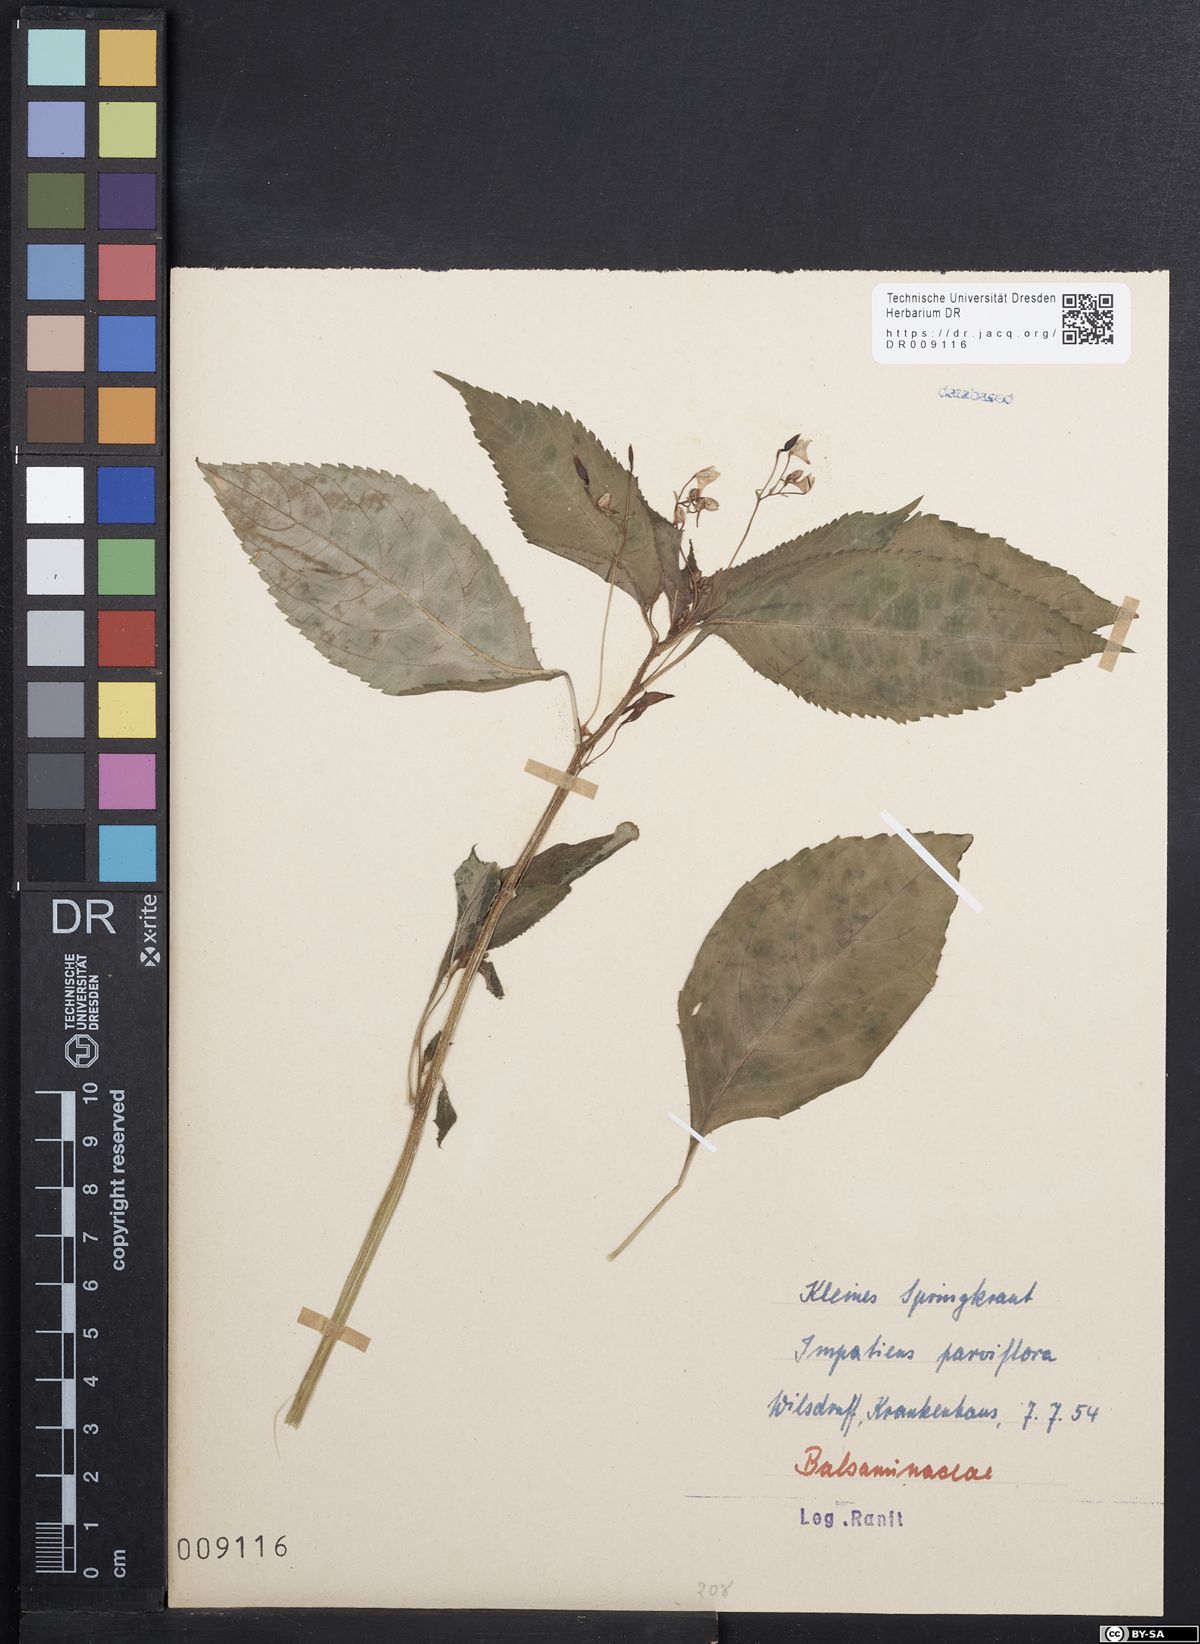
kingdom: Plantae
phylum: Tracheophyta
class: Magnoliopsida
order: Ericales
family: Balsaminaceae
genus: Impatiens
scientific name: Impatiens parviflora
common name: Small balsam
